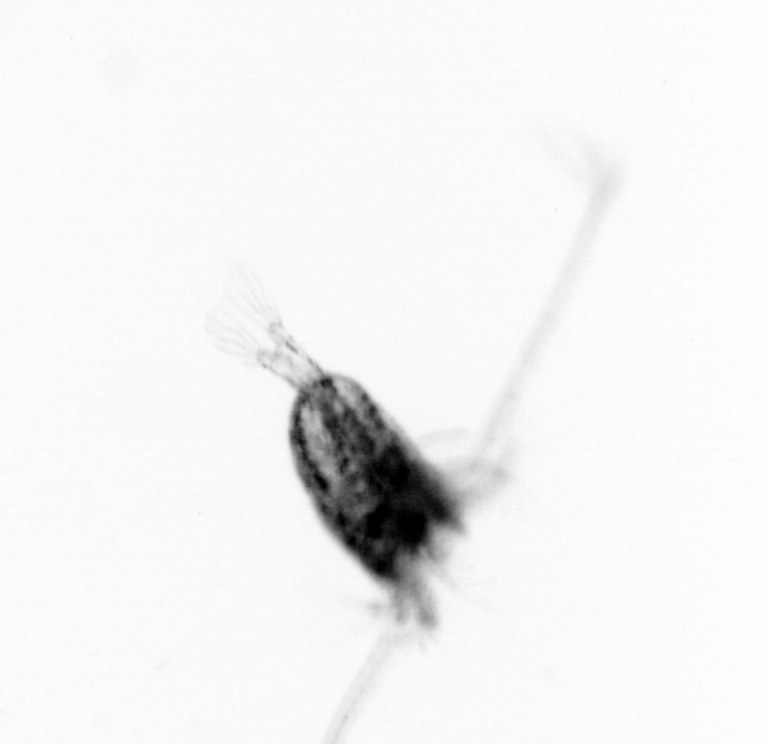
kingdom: Animalia
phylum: Arthropoda
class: Copepoda
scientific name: Copepoda
